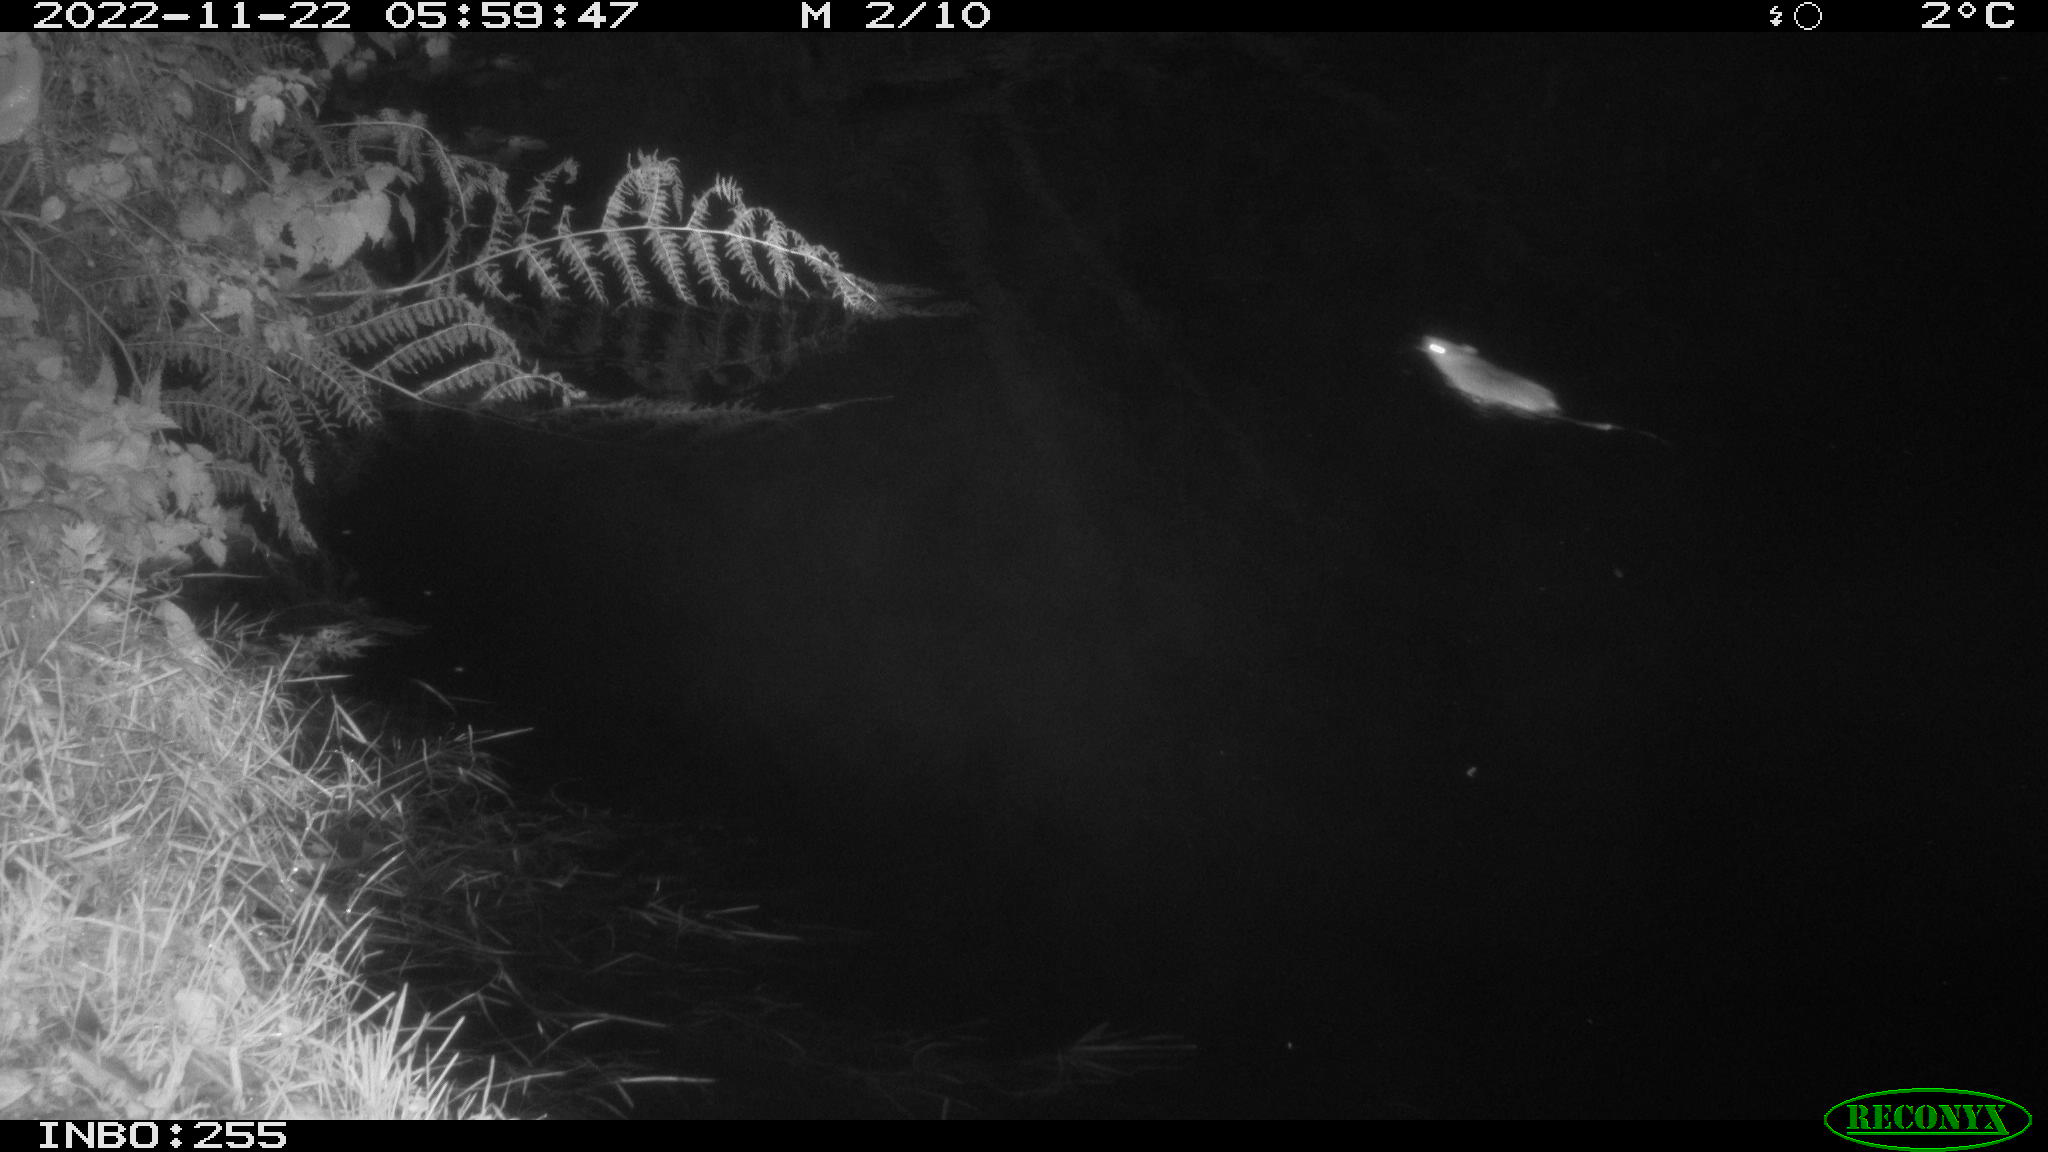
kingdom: Animalia
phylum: Chordata
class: Mammalia
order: Rodentia
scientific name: Rodentia
